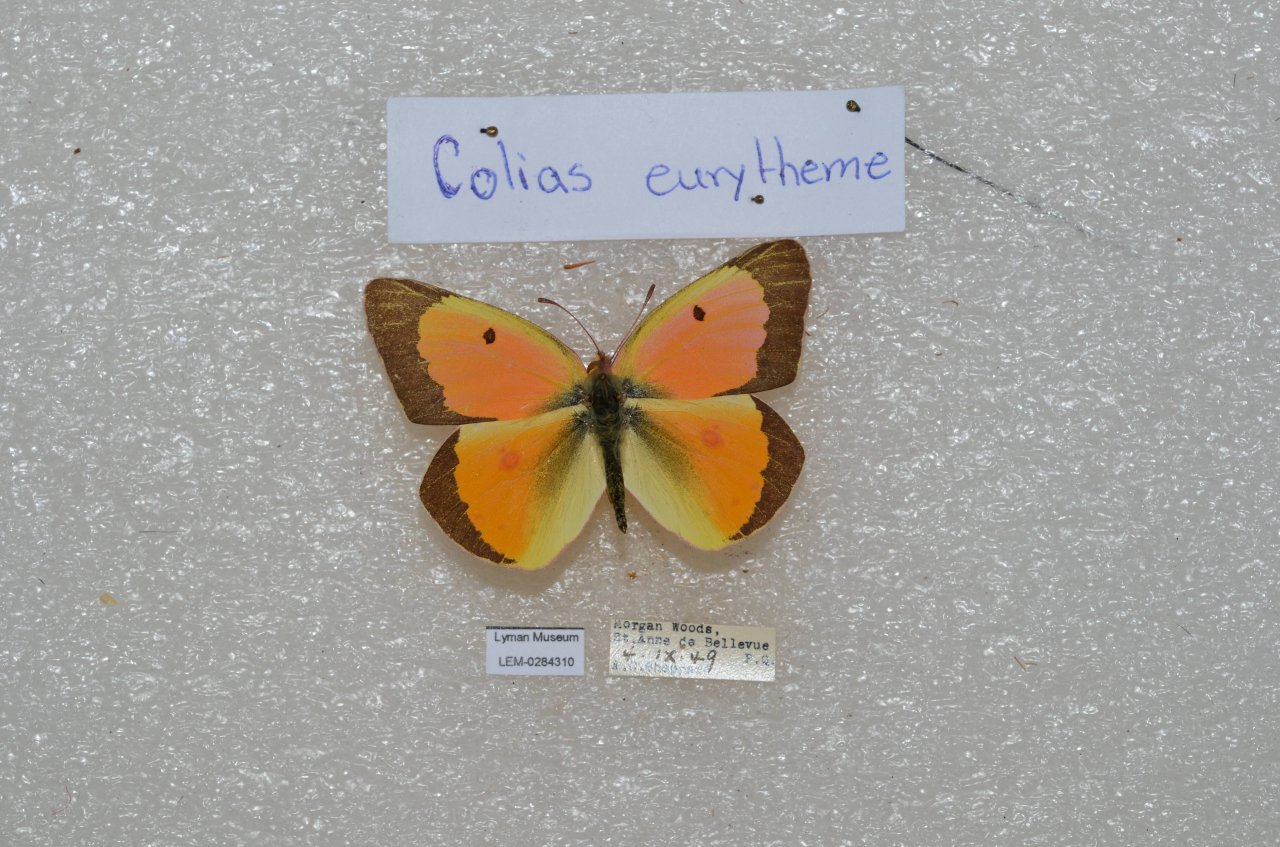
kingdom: Animalia
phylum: Arthropoda
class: Insecta
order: Lepidoptera
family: Pieridae
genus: Colias
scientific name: Colias eurytheme
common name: Orange Sulphur
